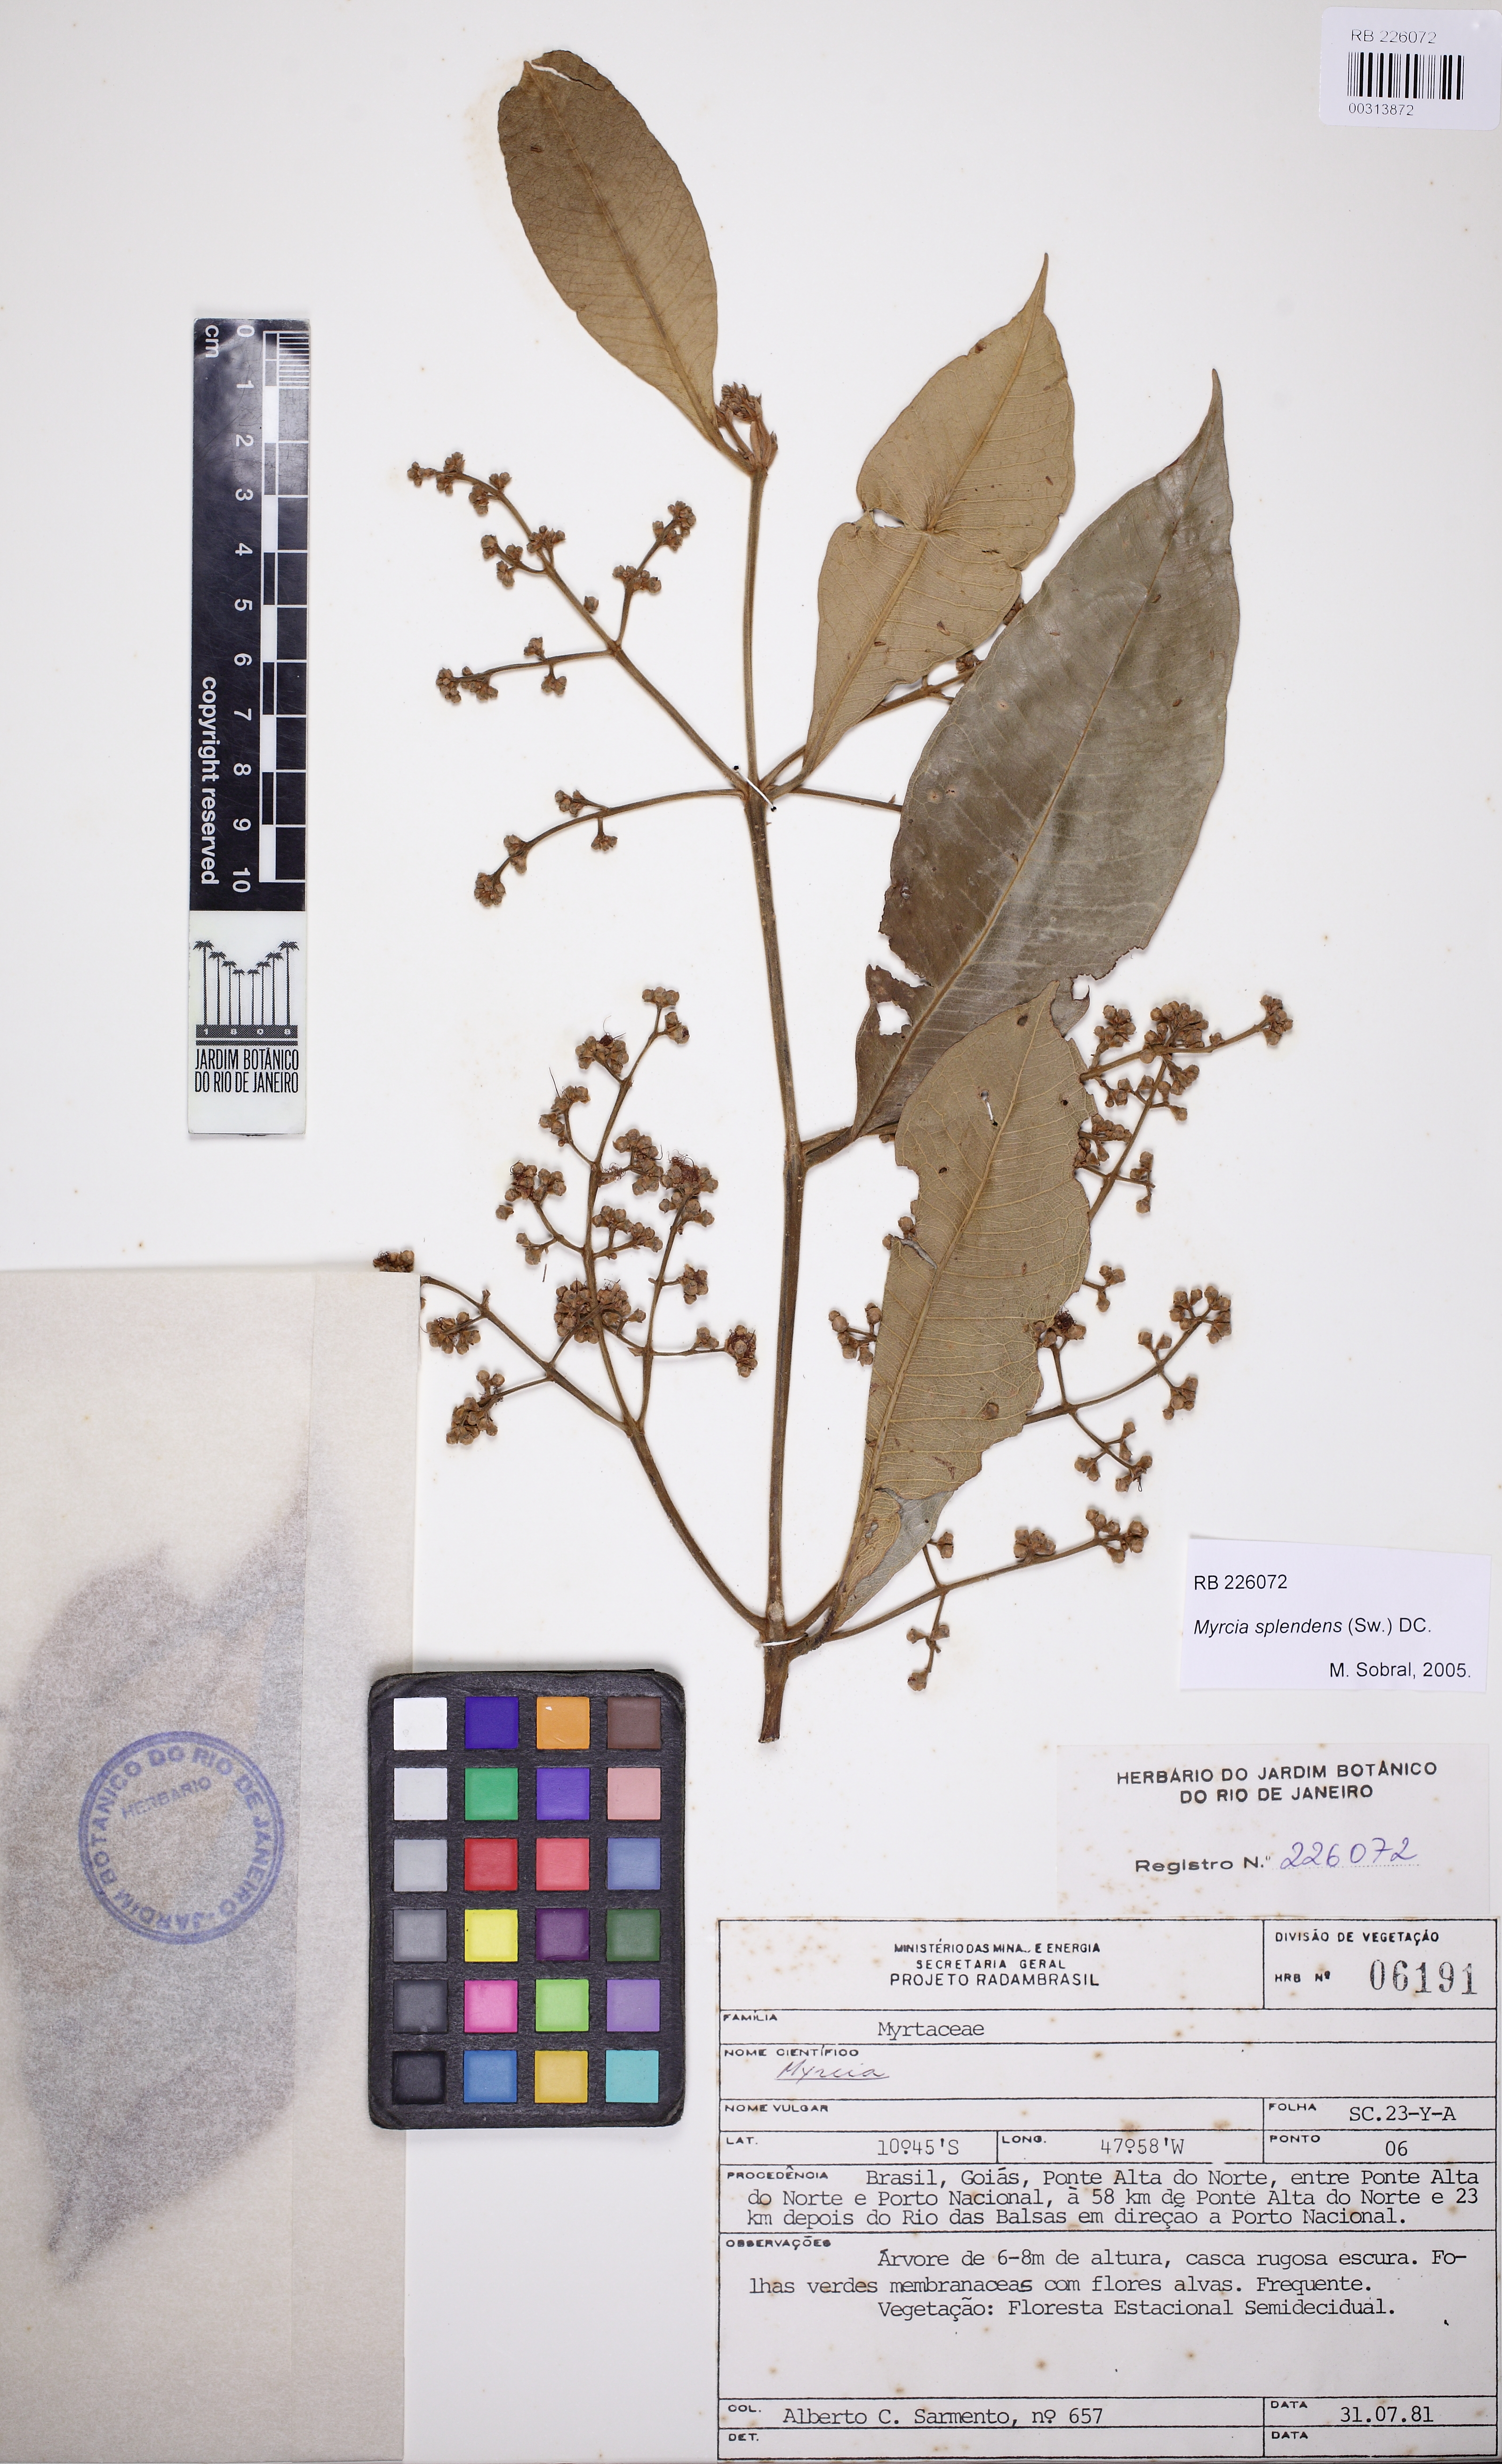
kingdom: Plantae
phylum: Tracheophyta
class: Magnoliopsida
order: Myrtales
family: Myrtaceae
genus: Myrcia
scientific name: Myrcia splendens
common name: Surinam cherry
